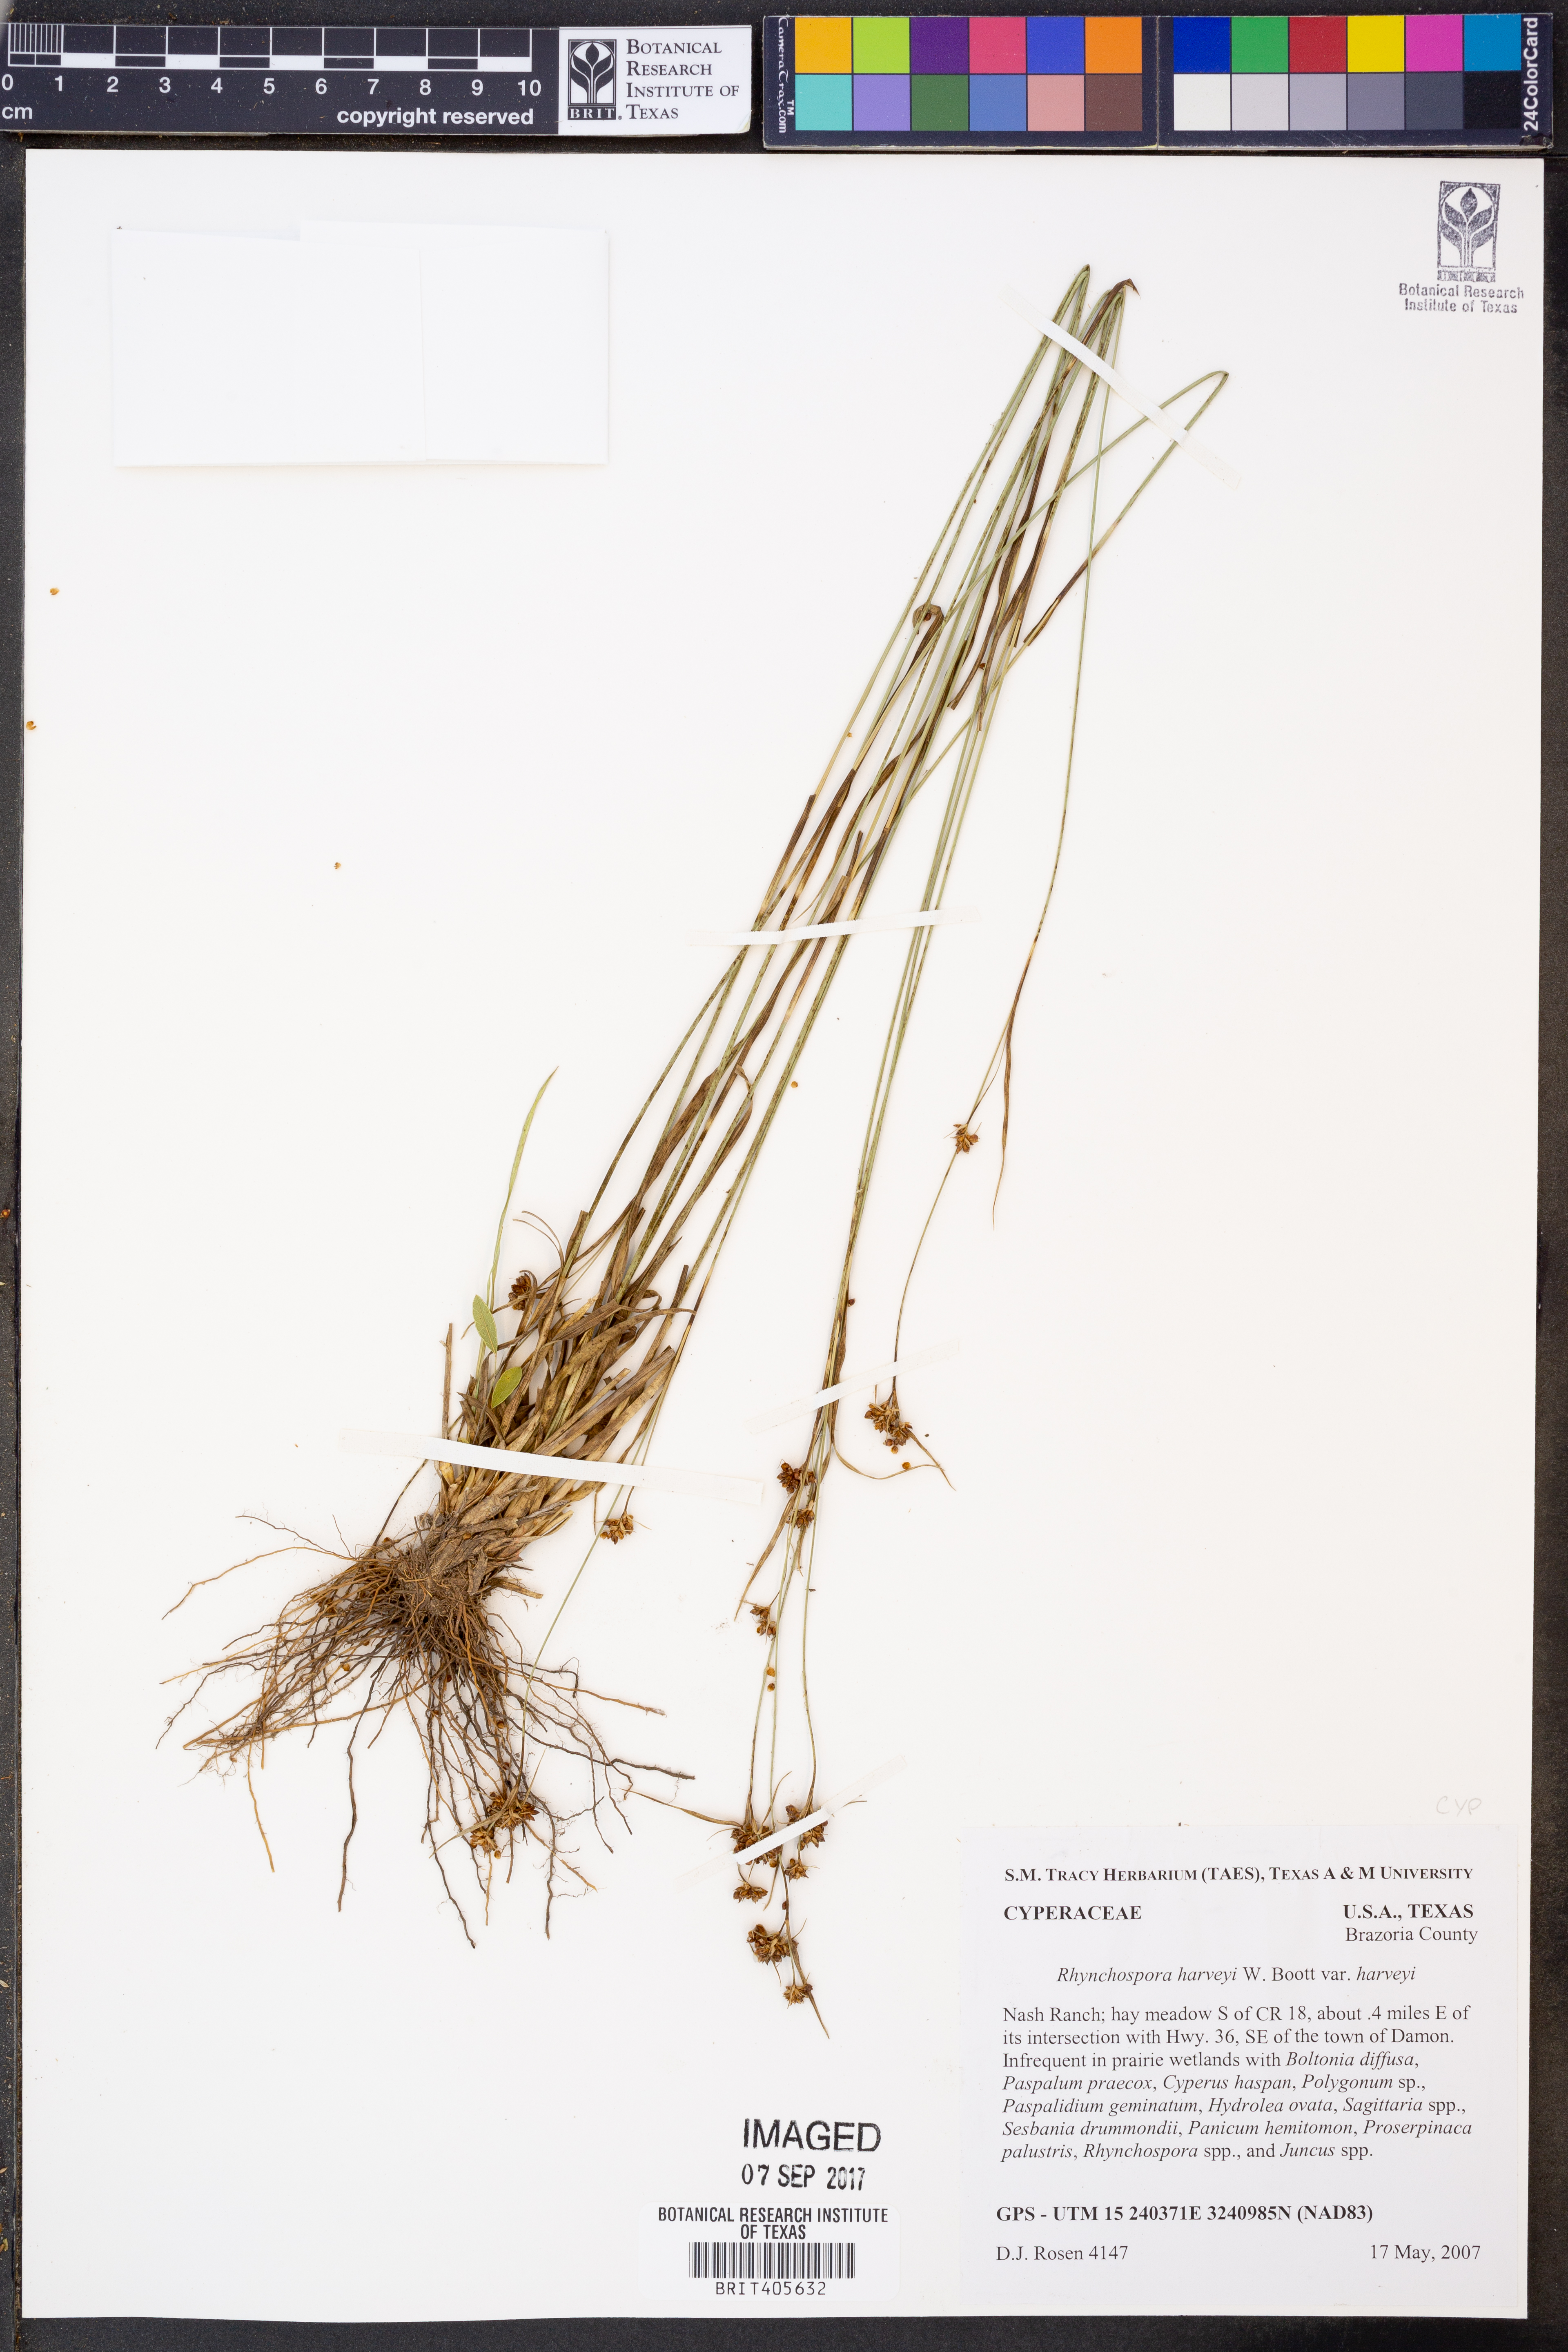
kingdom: Plantae
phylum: Tracheophyta
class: Liliopsida
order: Poales
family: Cyperaceae
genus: Rhynchospora
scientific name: Rhynchospora harveyi
